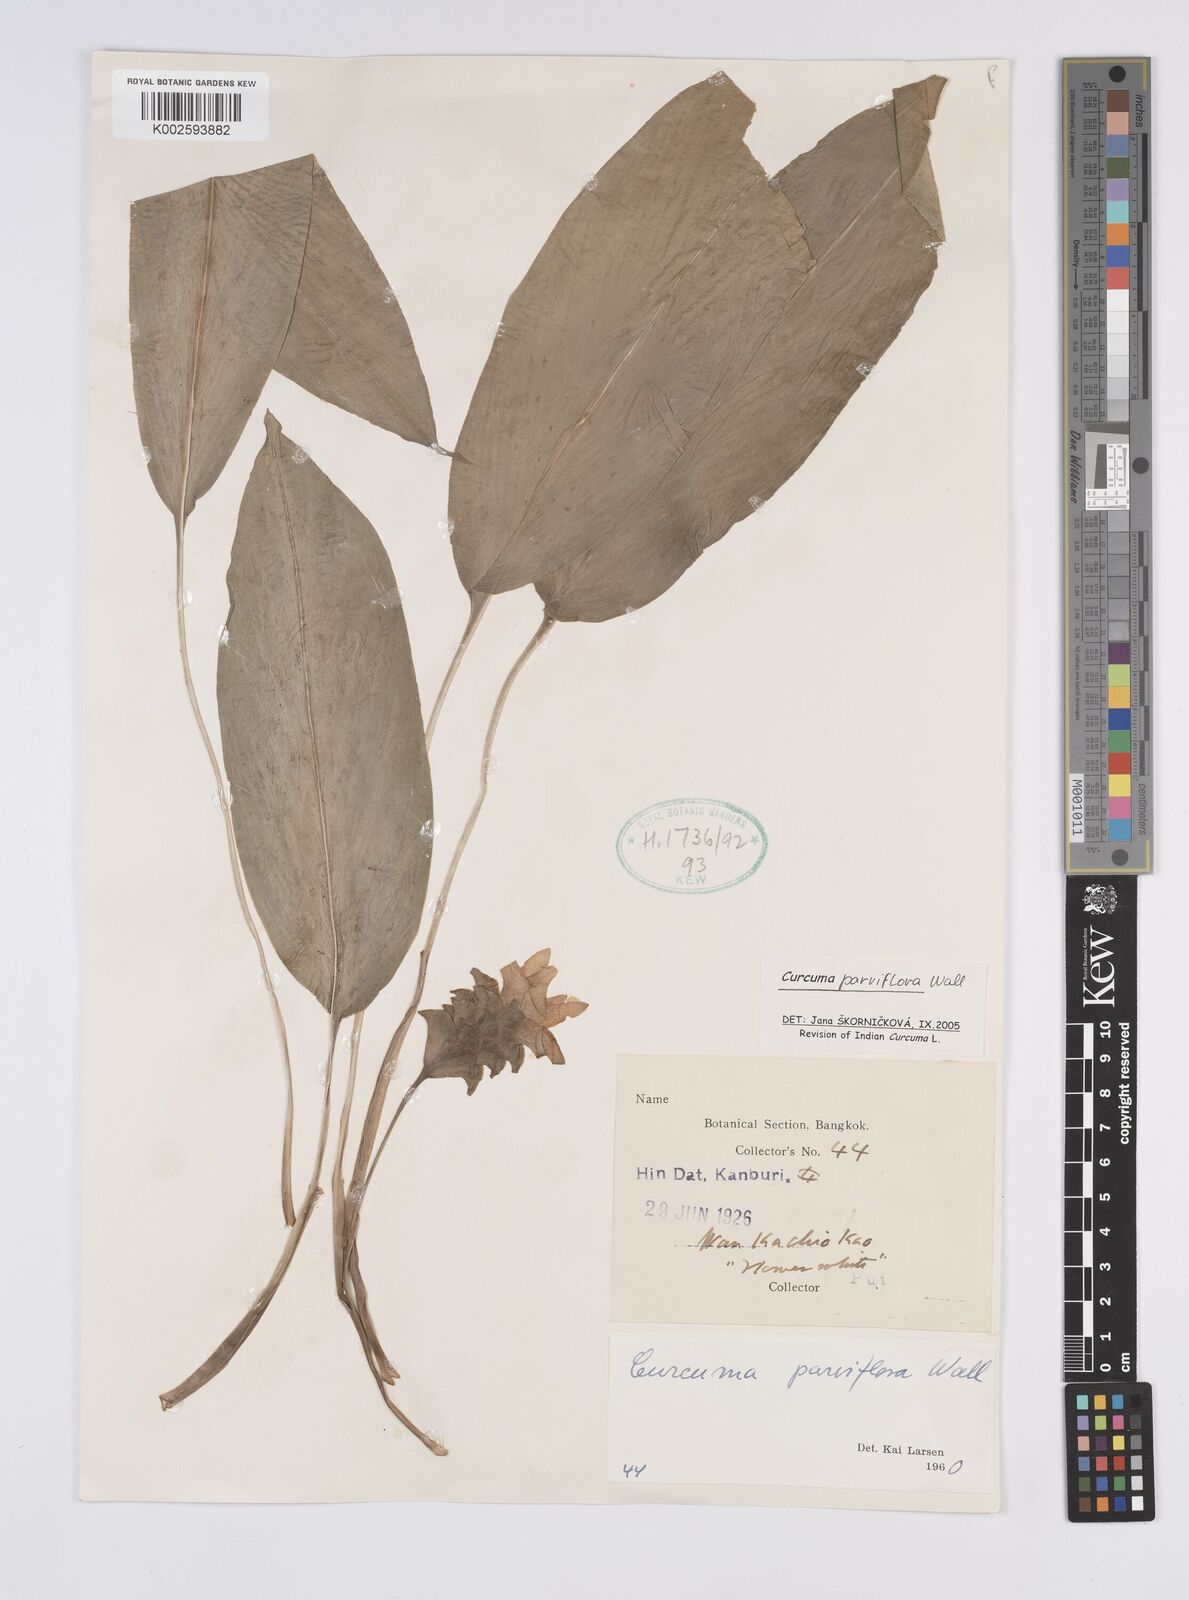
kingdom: Plantae
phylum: Tracheophyta
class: Liliopsida
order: Zingiberales
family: Zingiberaceae
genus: Curcuma
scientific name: Curcuma parviflora
